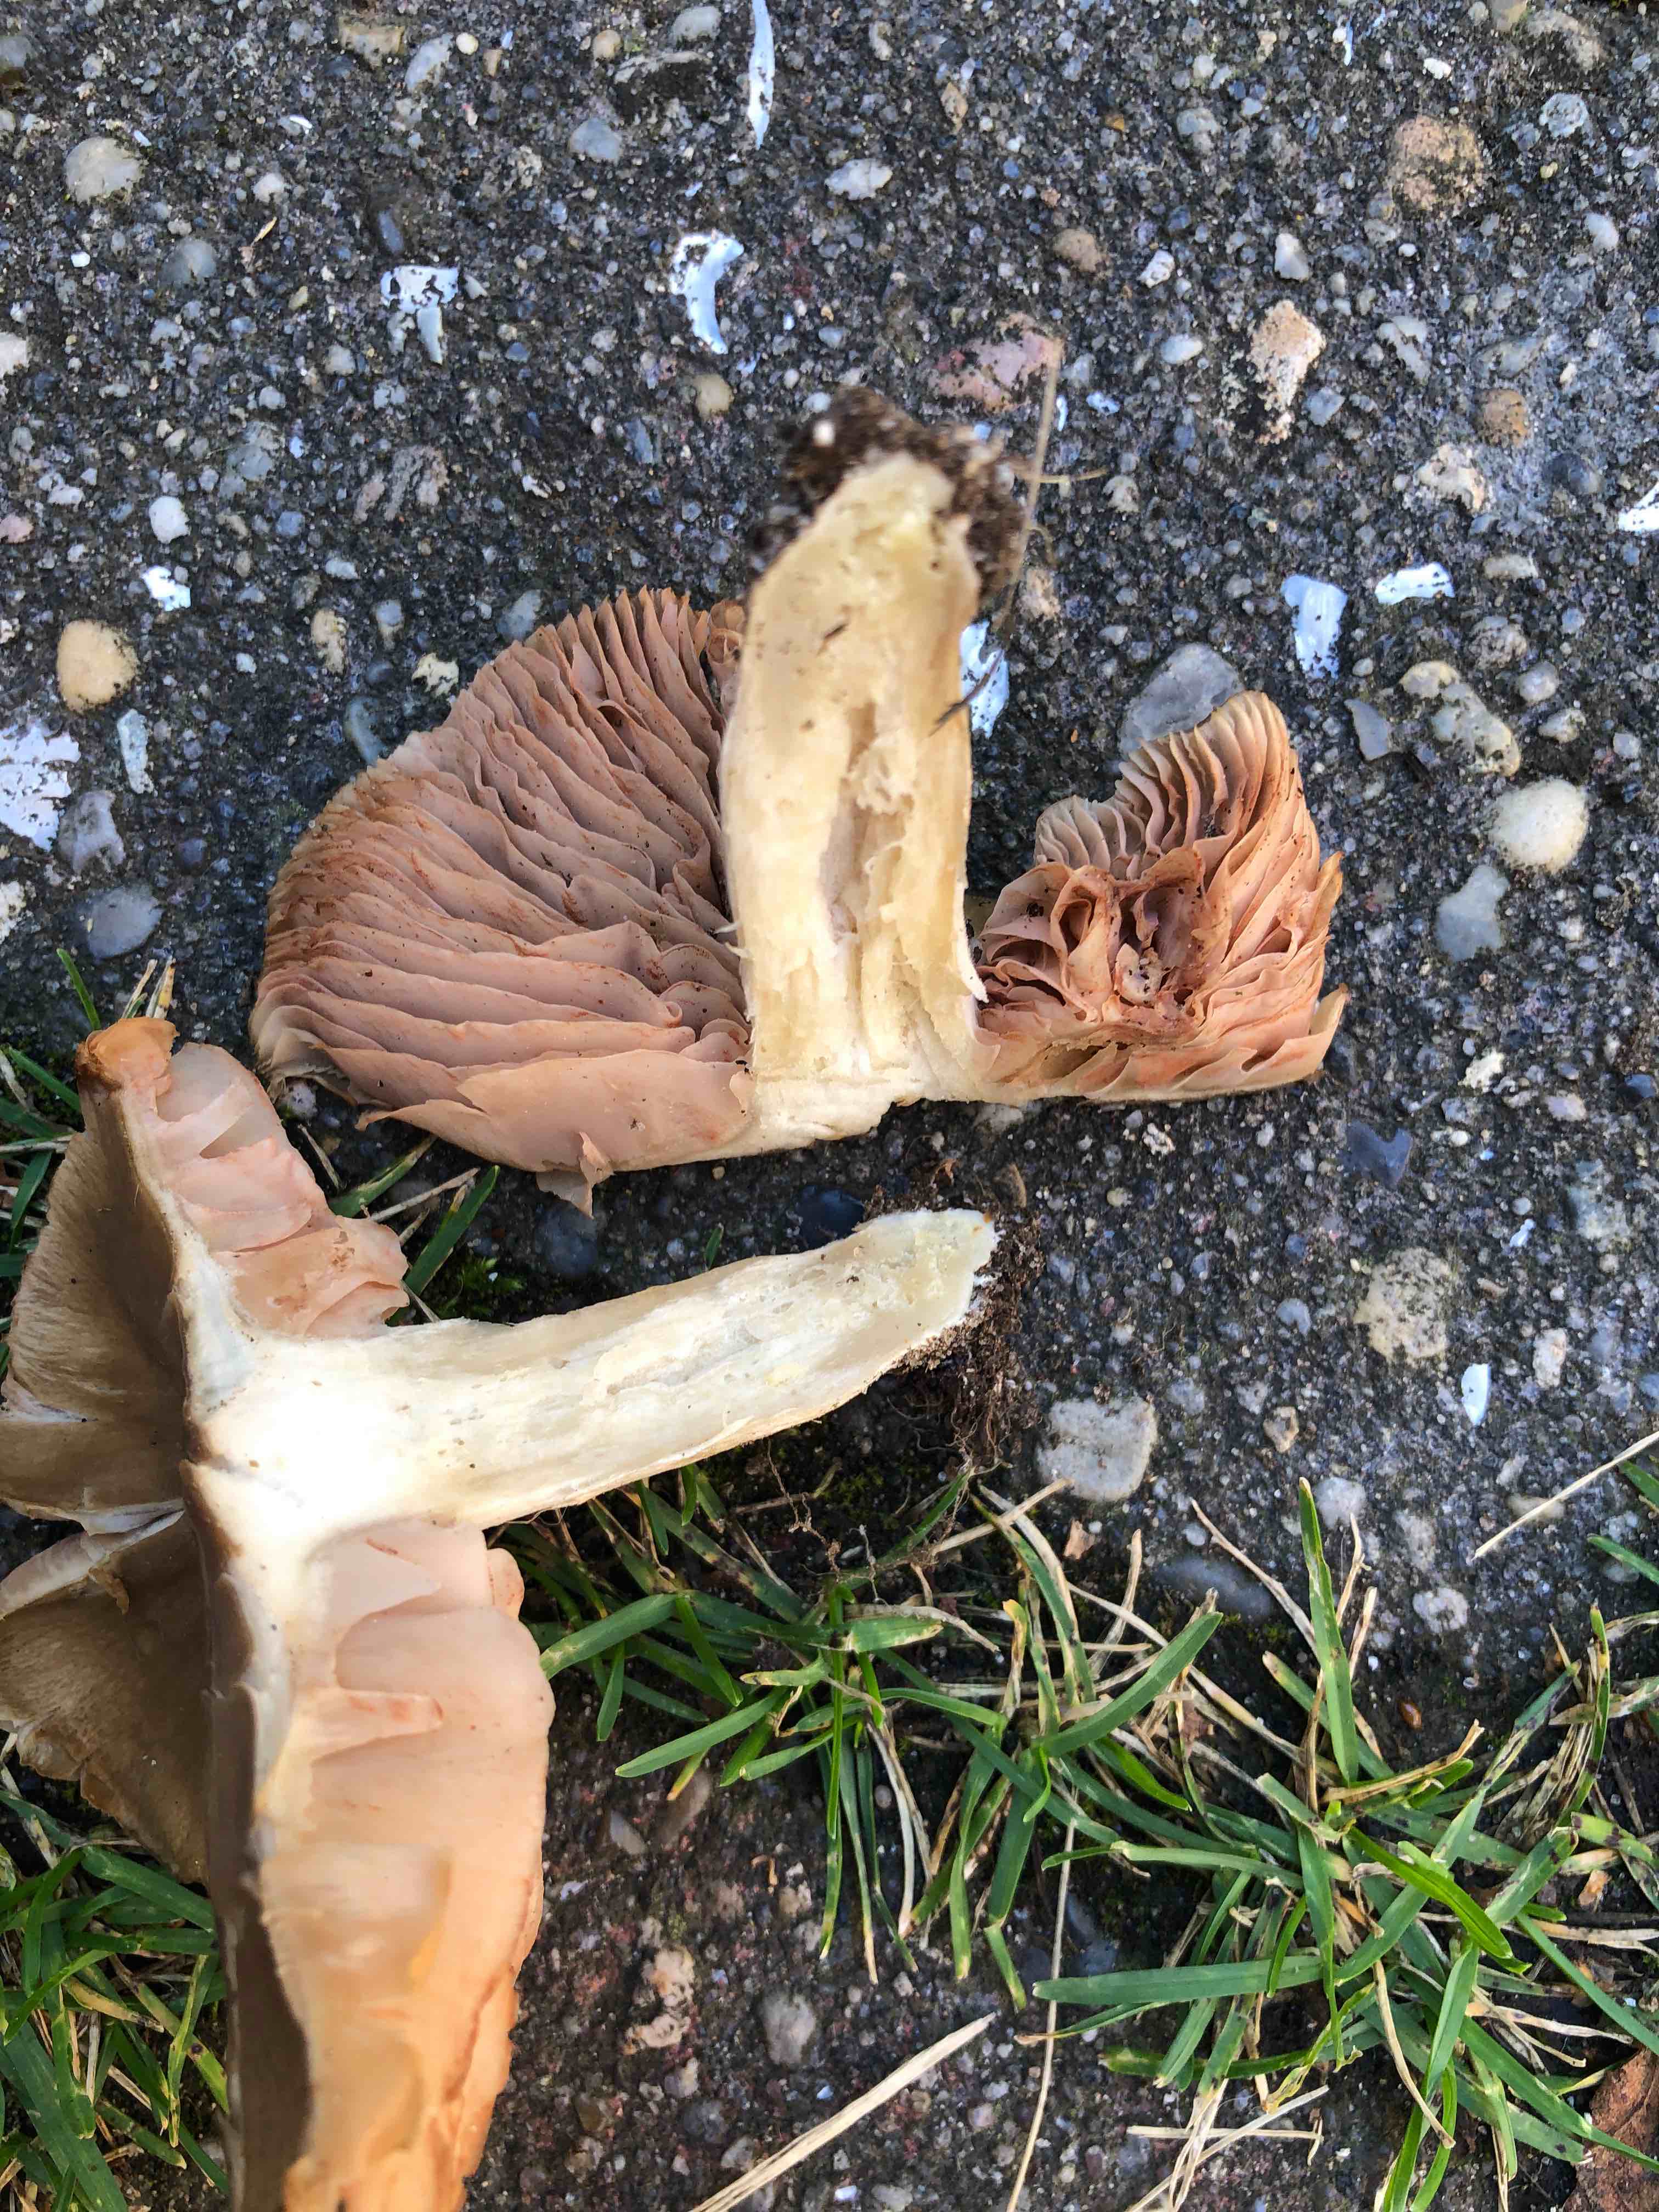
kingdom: Fungi
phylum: Basidiomycota
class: Agaricomycetes
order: Agaricales
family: Entolomataceae
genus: Entoloma
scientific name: Entoloma
